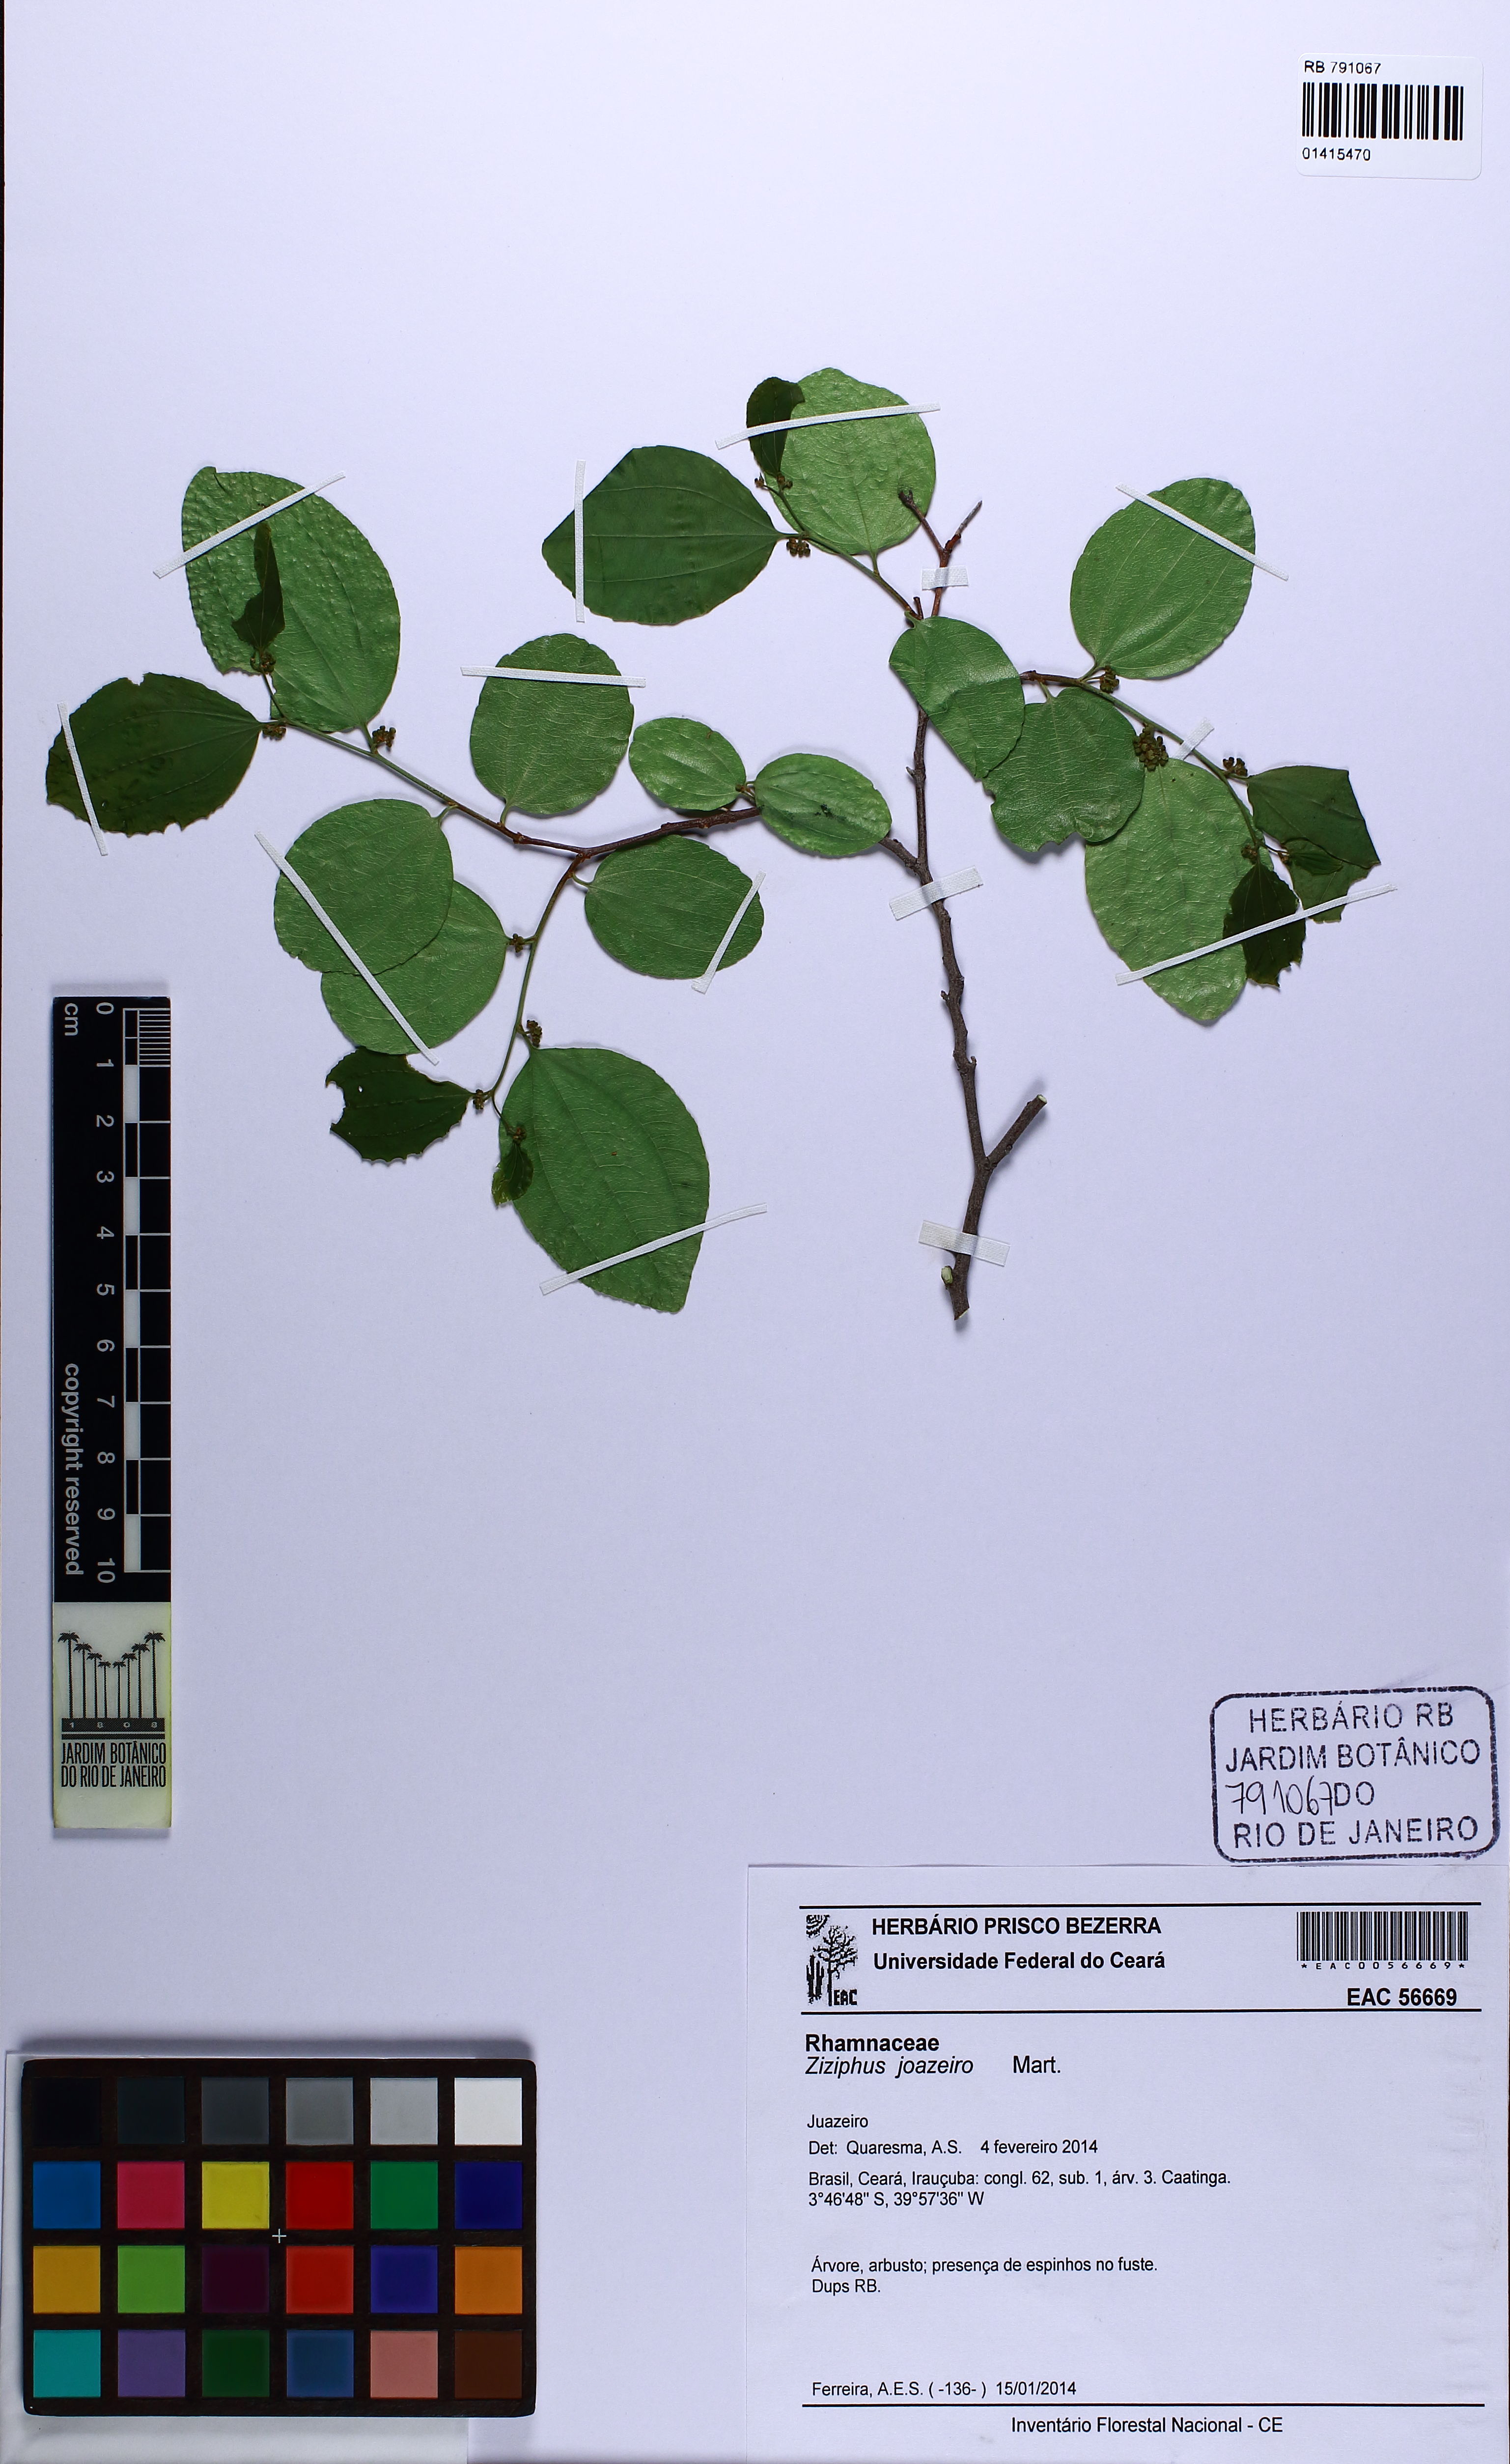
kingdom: Plantae
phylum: Tracheophyta
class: Magnoliopsida
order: Rosales
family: Rhamnaceae
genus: Sarcomphalus
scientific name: Sarcomphalus joazeiro
